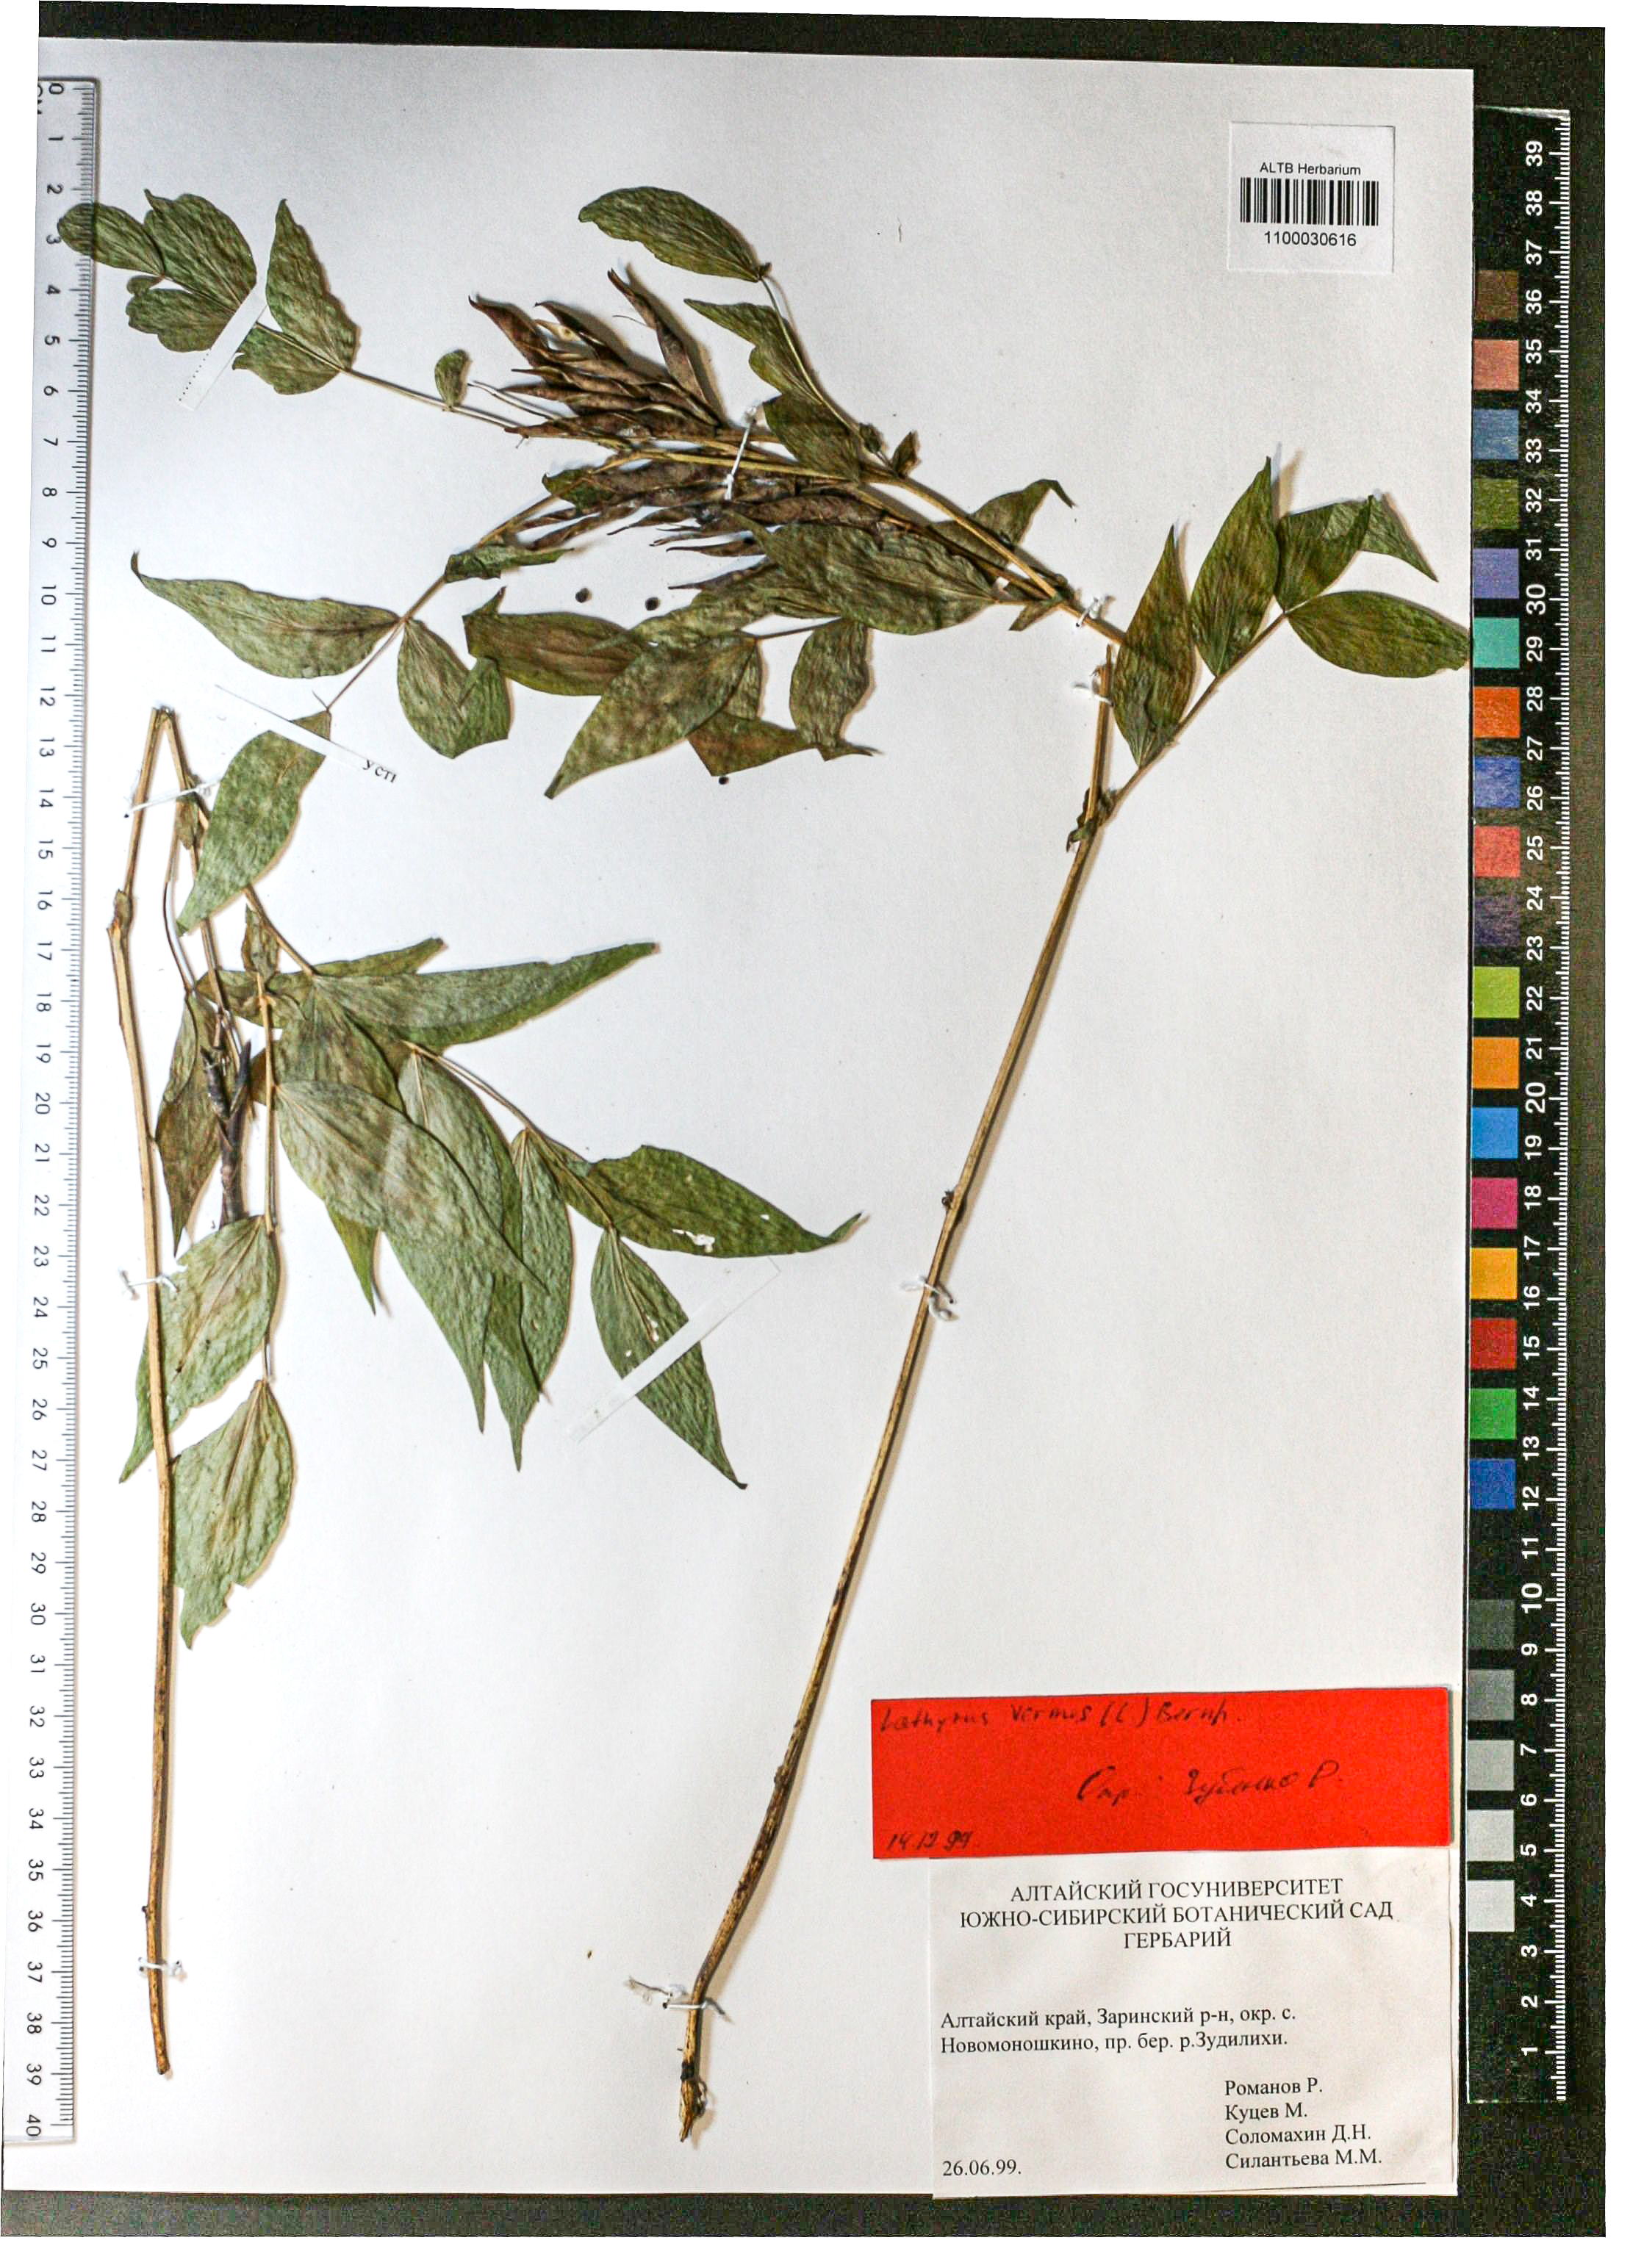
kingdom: Plantae
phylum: Tracheophyta
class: Magnoliopsida
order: Fabales
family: Fabaceae
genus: Lathyrus
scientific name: Lathyrus vernus
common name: Spring pea
